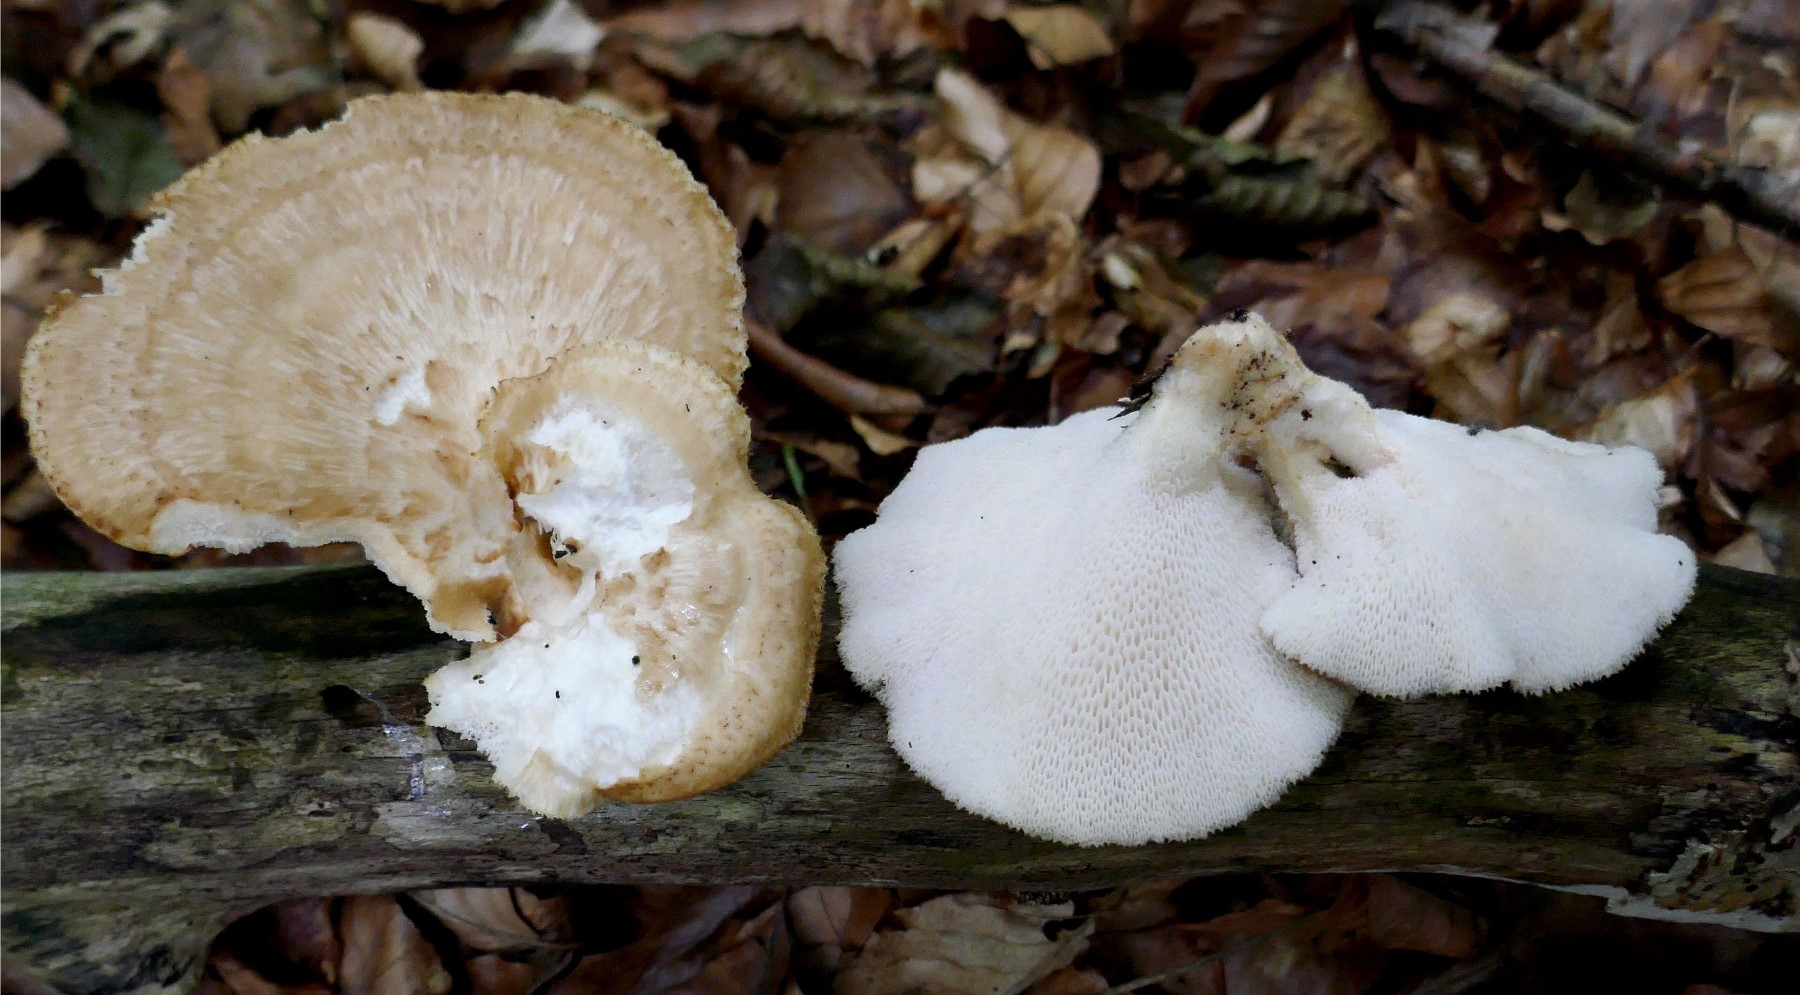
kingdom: Fungi
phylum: Basidiomycota
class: Agaricomycetes
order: Polyporales
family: Polyporaceae
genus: Polyporus
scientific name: Polyporus tuberaster
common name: knoldet stilkporesvamp
